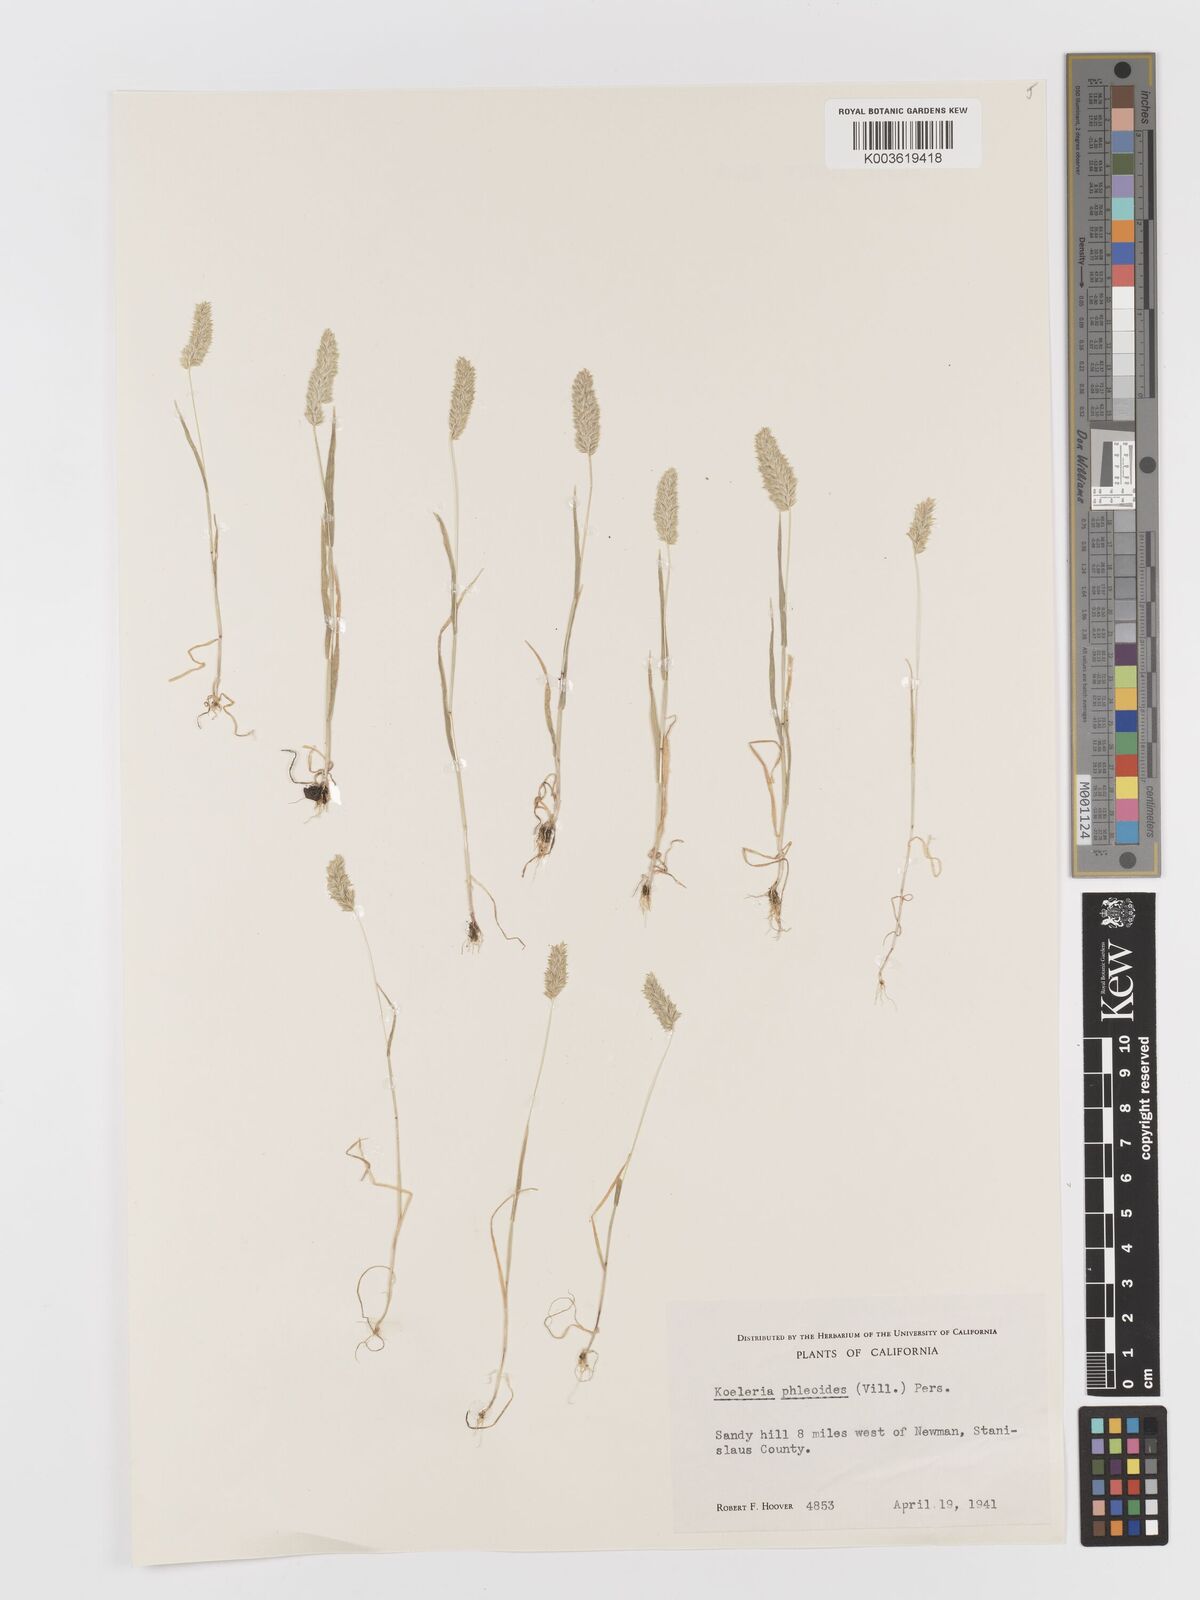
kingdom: Plantae
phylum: Tracheophyta
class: Liliopsida
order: Poales
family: Poaceae
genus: Rostraria
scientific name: Rostraria cristata
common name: Mediterranean hair-grass
